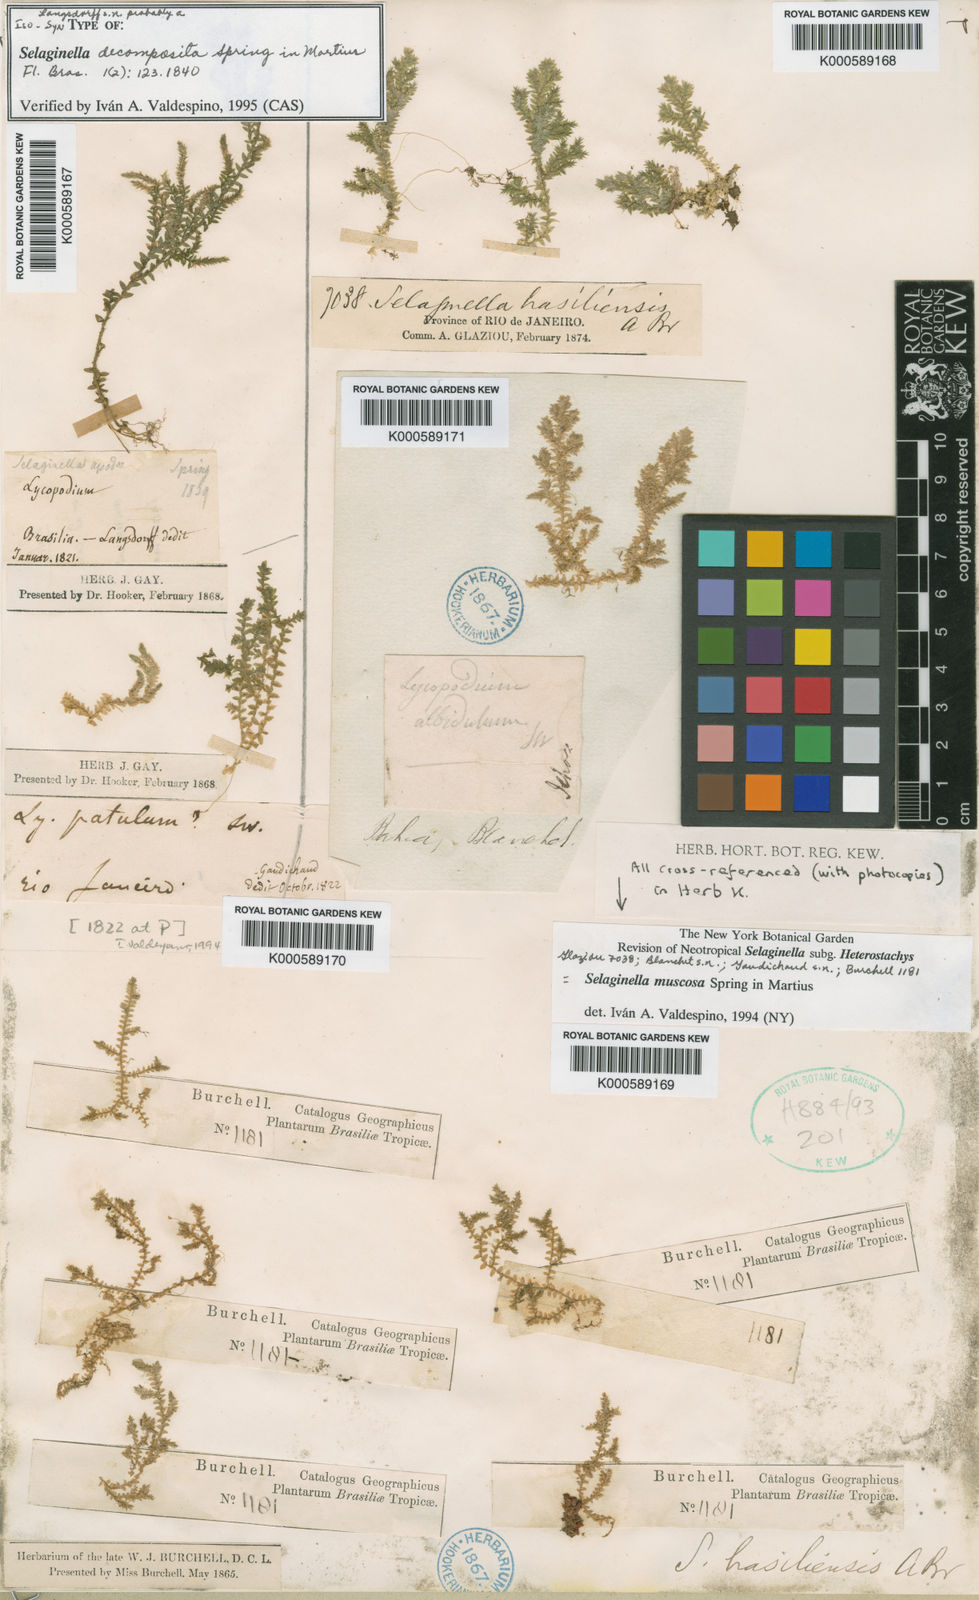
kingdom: Plantae
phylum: Tracheophyta
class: Lycopodiopsida
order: Selaginellales
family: Selaginellaceae
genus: Selaginella
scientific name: Selaginella muscosa
